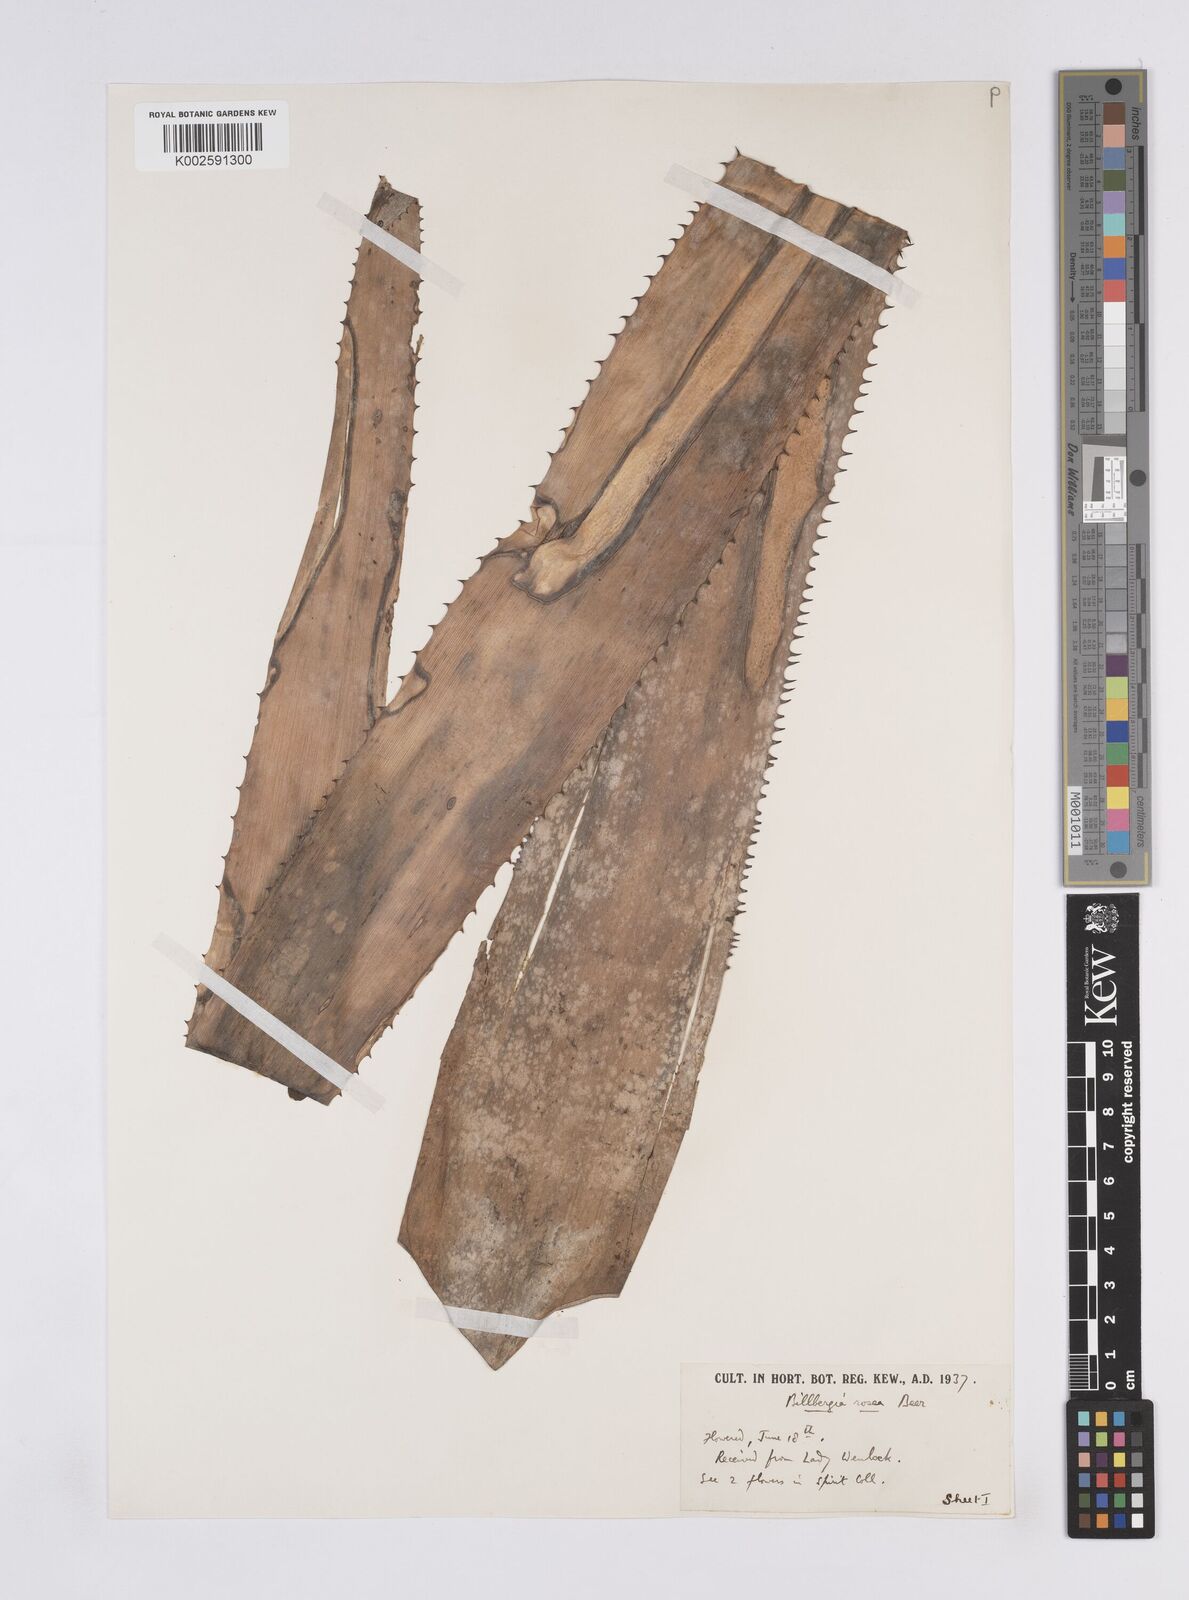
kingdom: Plantae
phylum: Tracheophyta
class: Liliopsida
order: Poales
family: Bromeliaceae
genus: Billbergia
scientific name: Billbergia rosea
